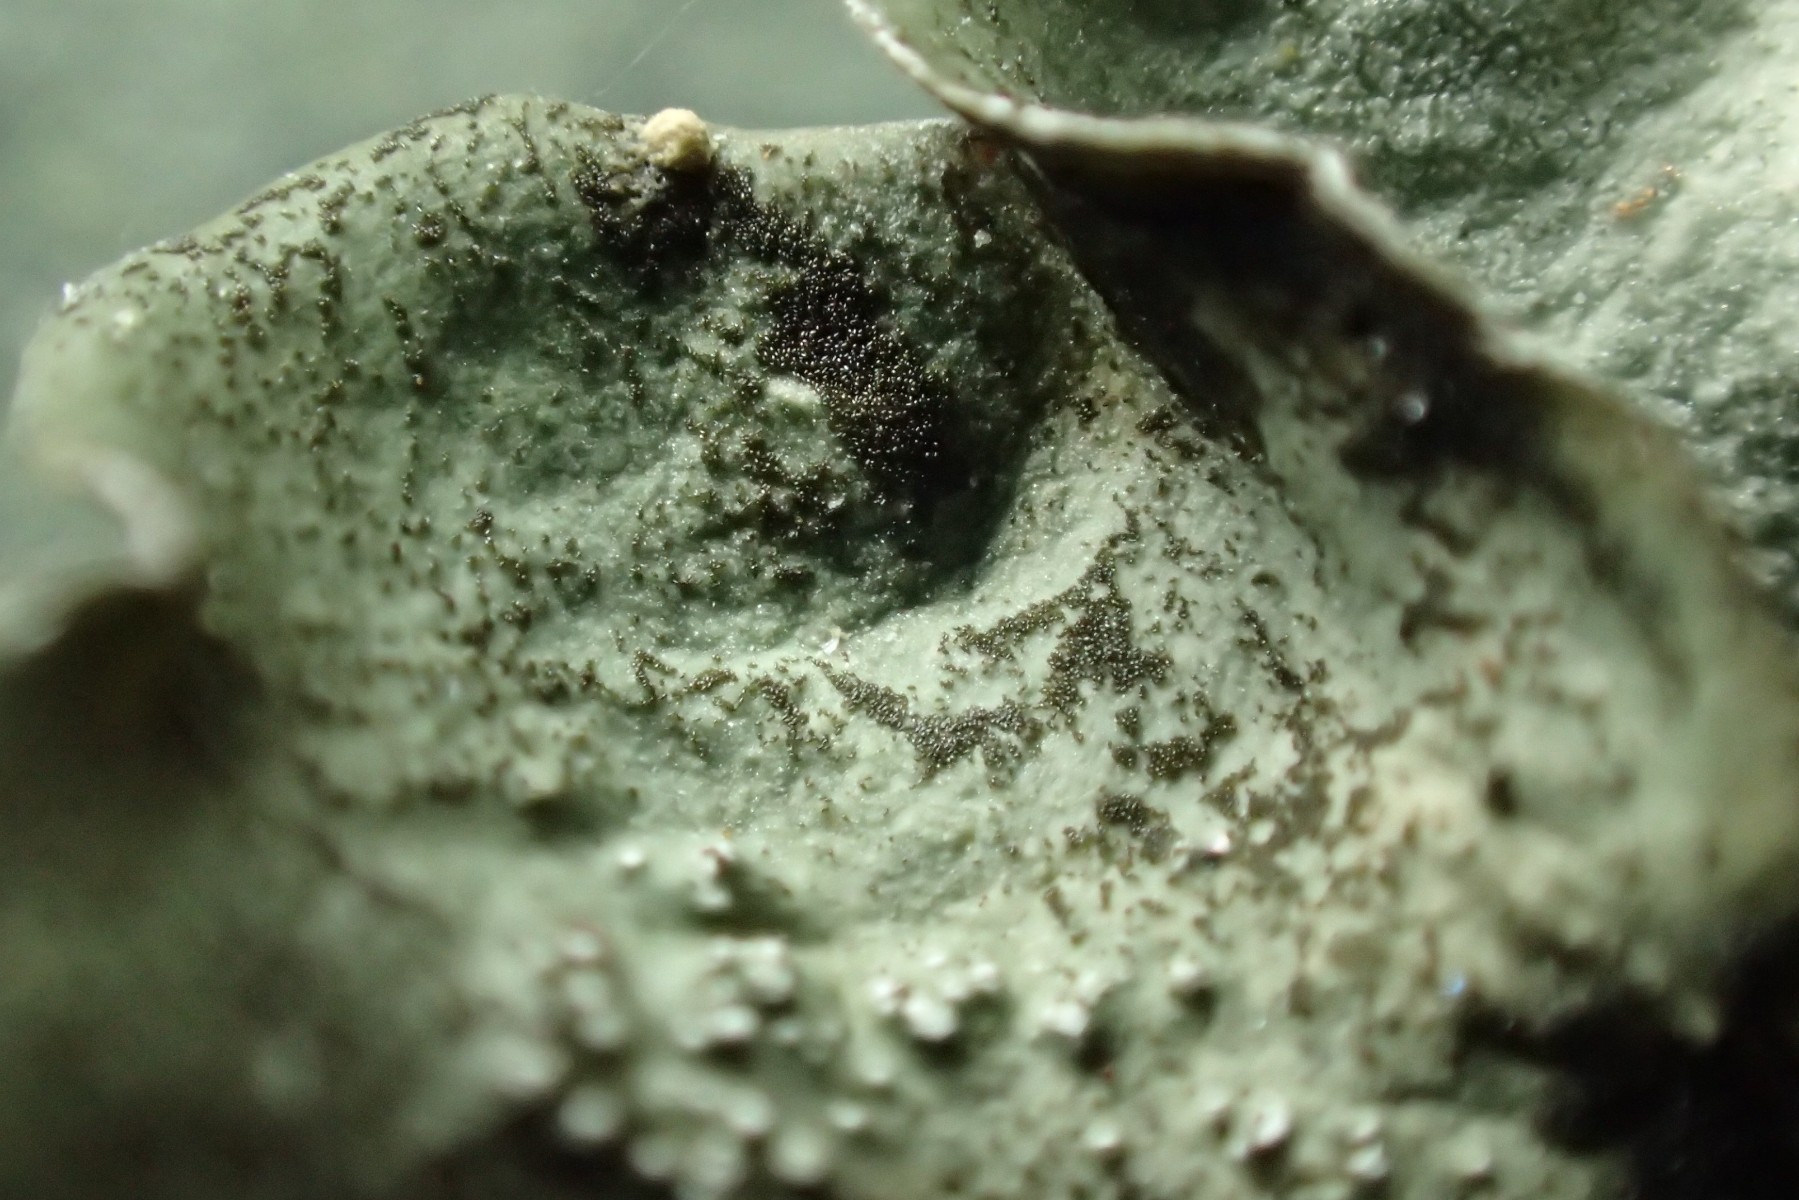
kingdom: Fungi
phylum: Ascomycota
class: Sordariomycetes
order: Diaporthales
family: Melanconidaceae
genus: Prosthecium
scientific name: Prosthecium pyriforme
